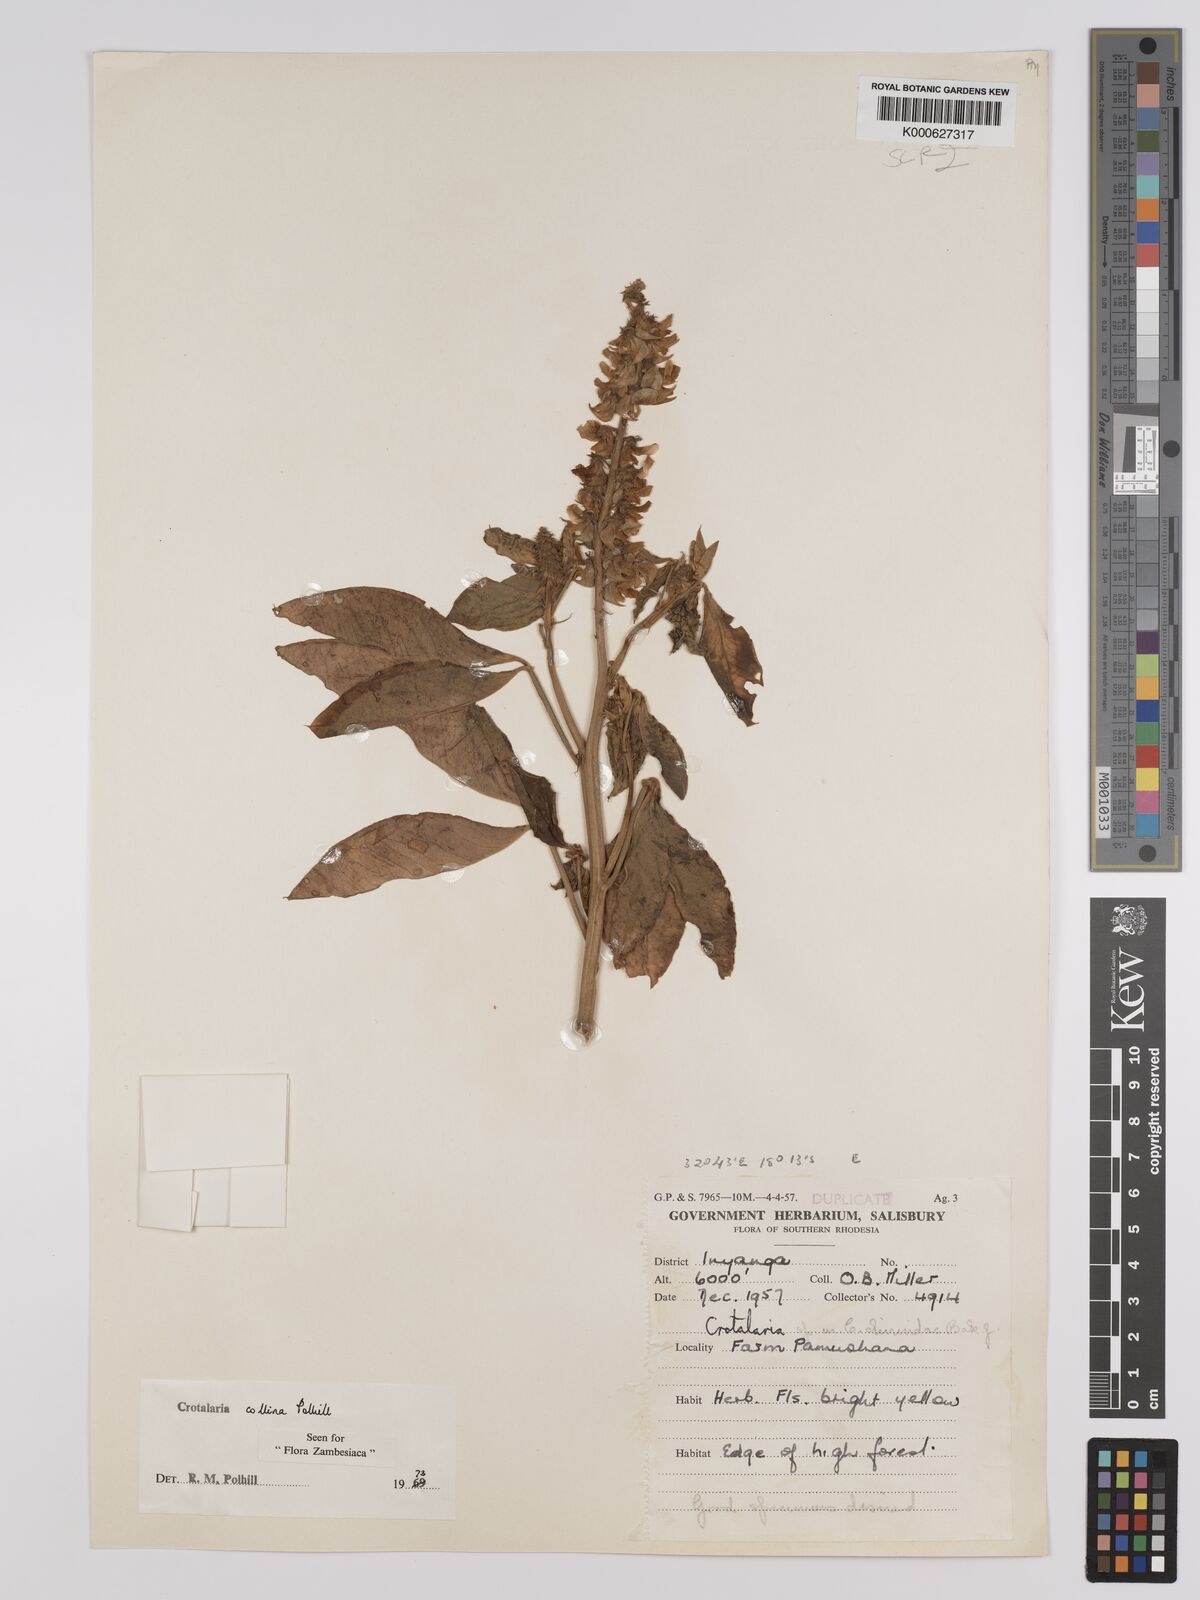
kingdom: Plantae
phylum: Tracheophyta
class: Magnoliopsida
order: Fabales
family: Fabaceae
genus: Crotalaria
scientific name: Crotalaria collina
